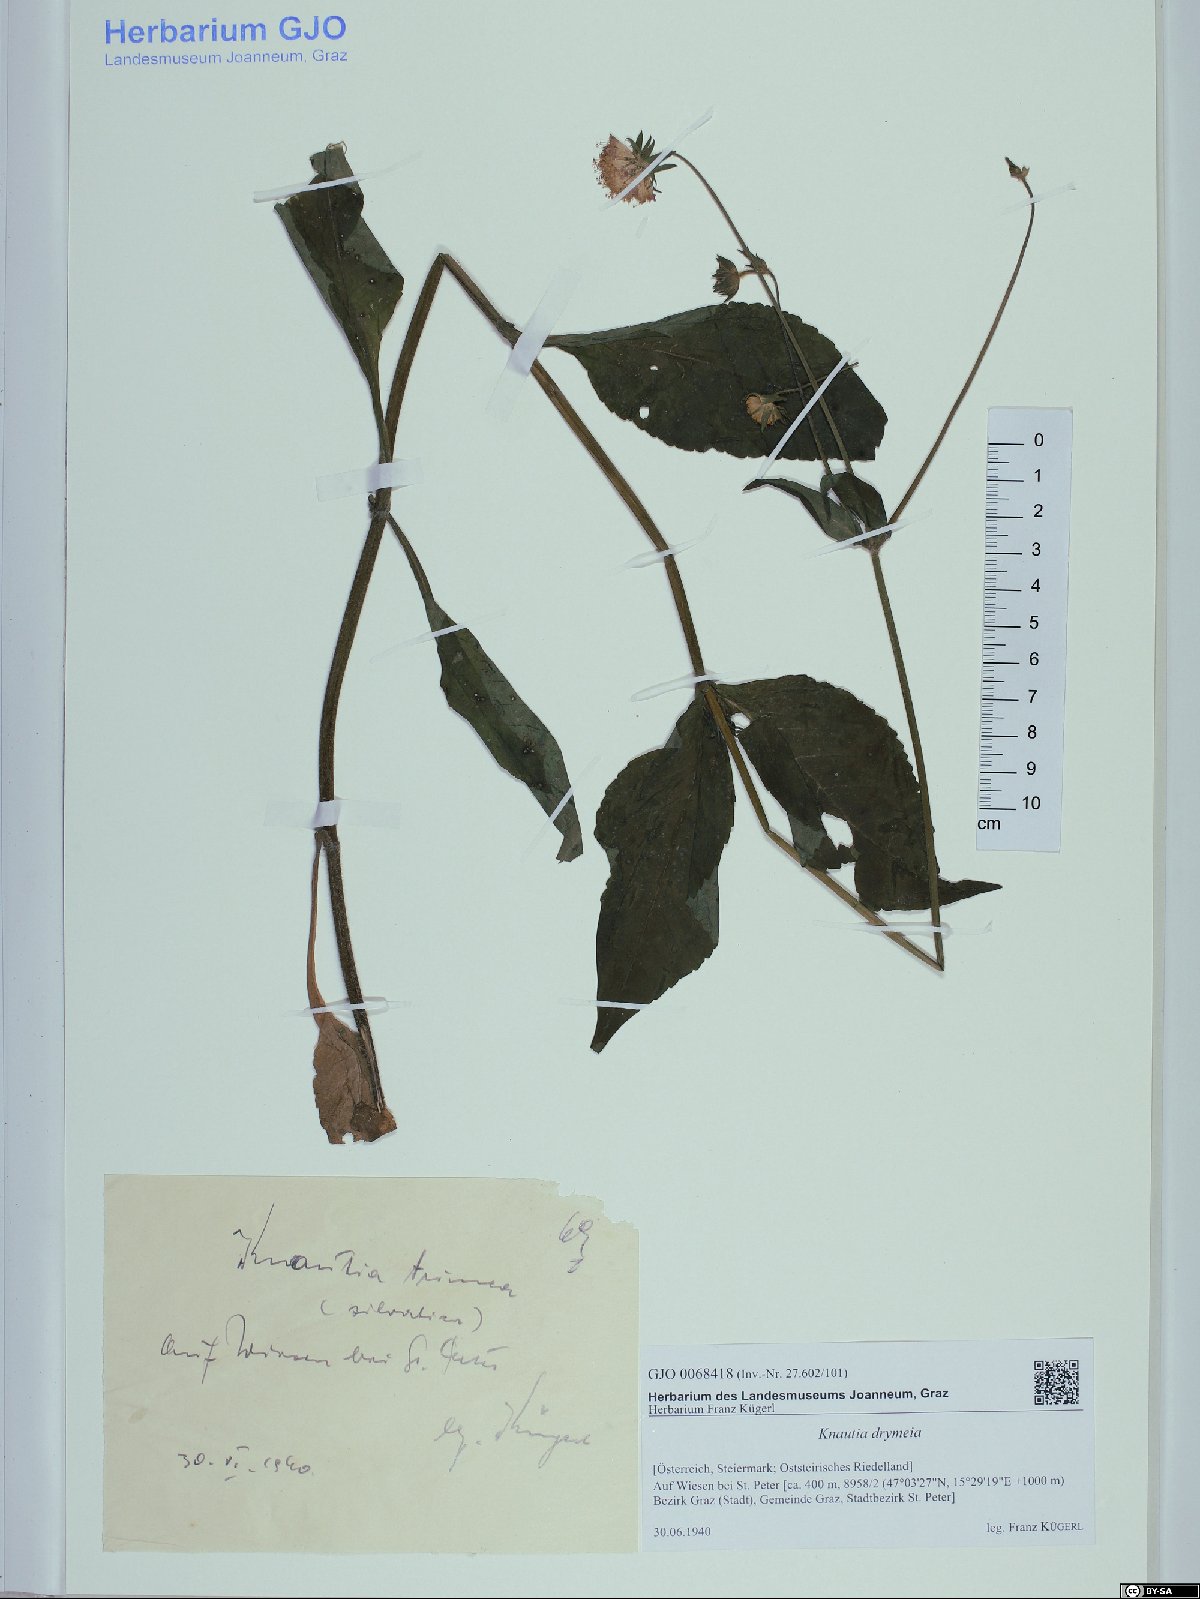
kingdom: Plantae
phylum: Tracheophyta
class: Magnoliopsida
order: Dipsacales
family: Caprifoliaceae
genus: Knautia
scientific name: Knautia drymeia
